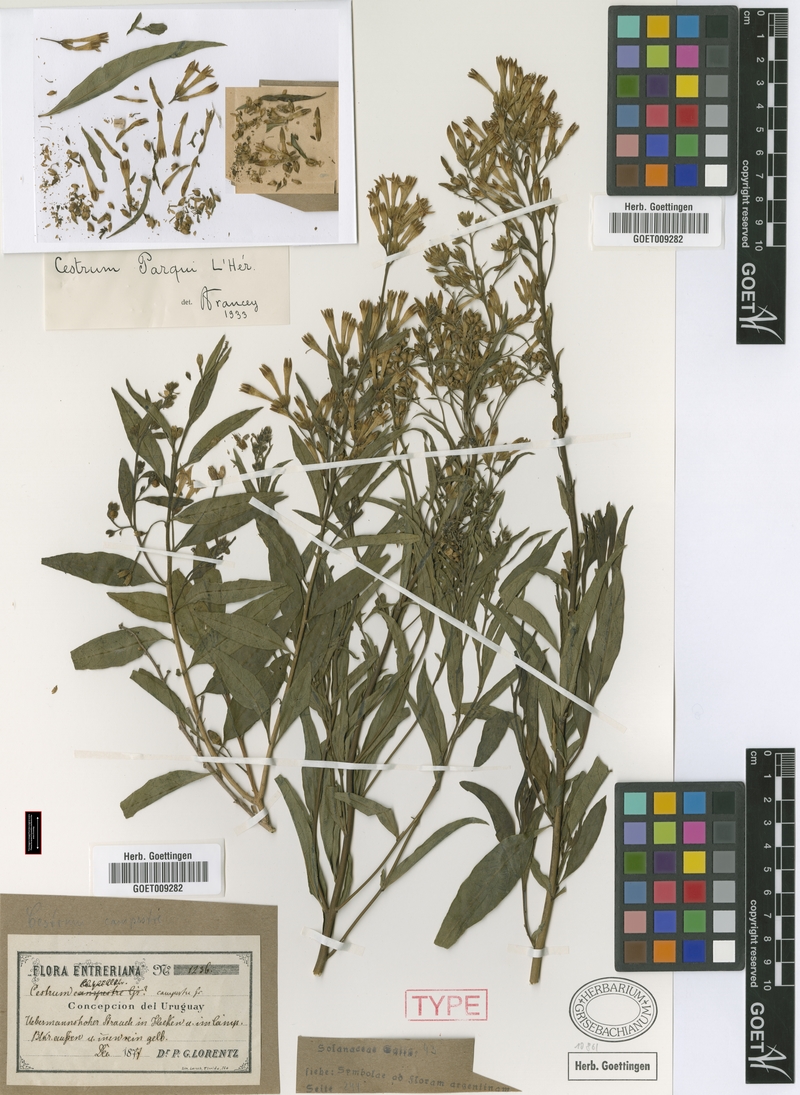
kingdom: Plantae
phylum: Tracheophyta
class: Magnoliopsida
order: Solanales
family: Solanaceae
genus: Cestrum
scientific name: Cestrum thyrsoideum
